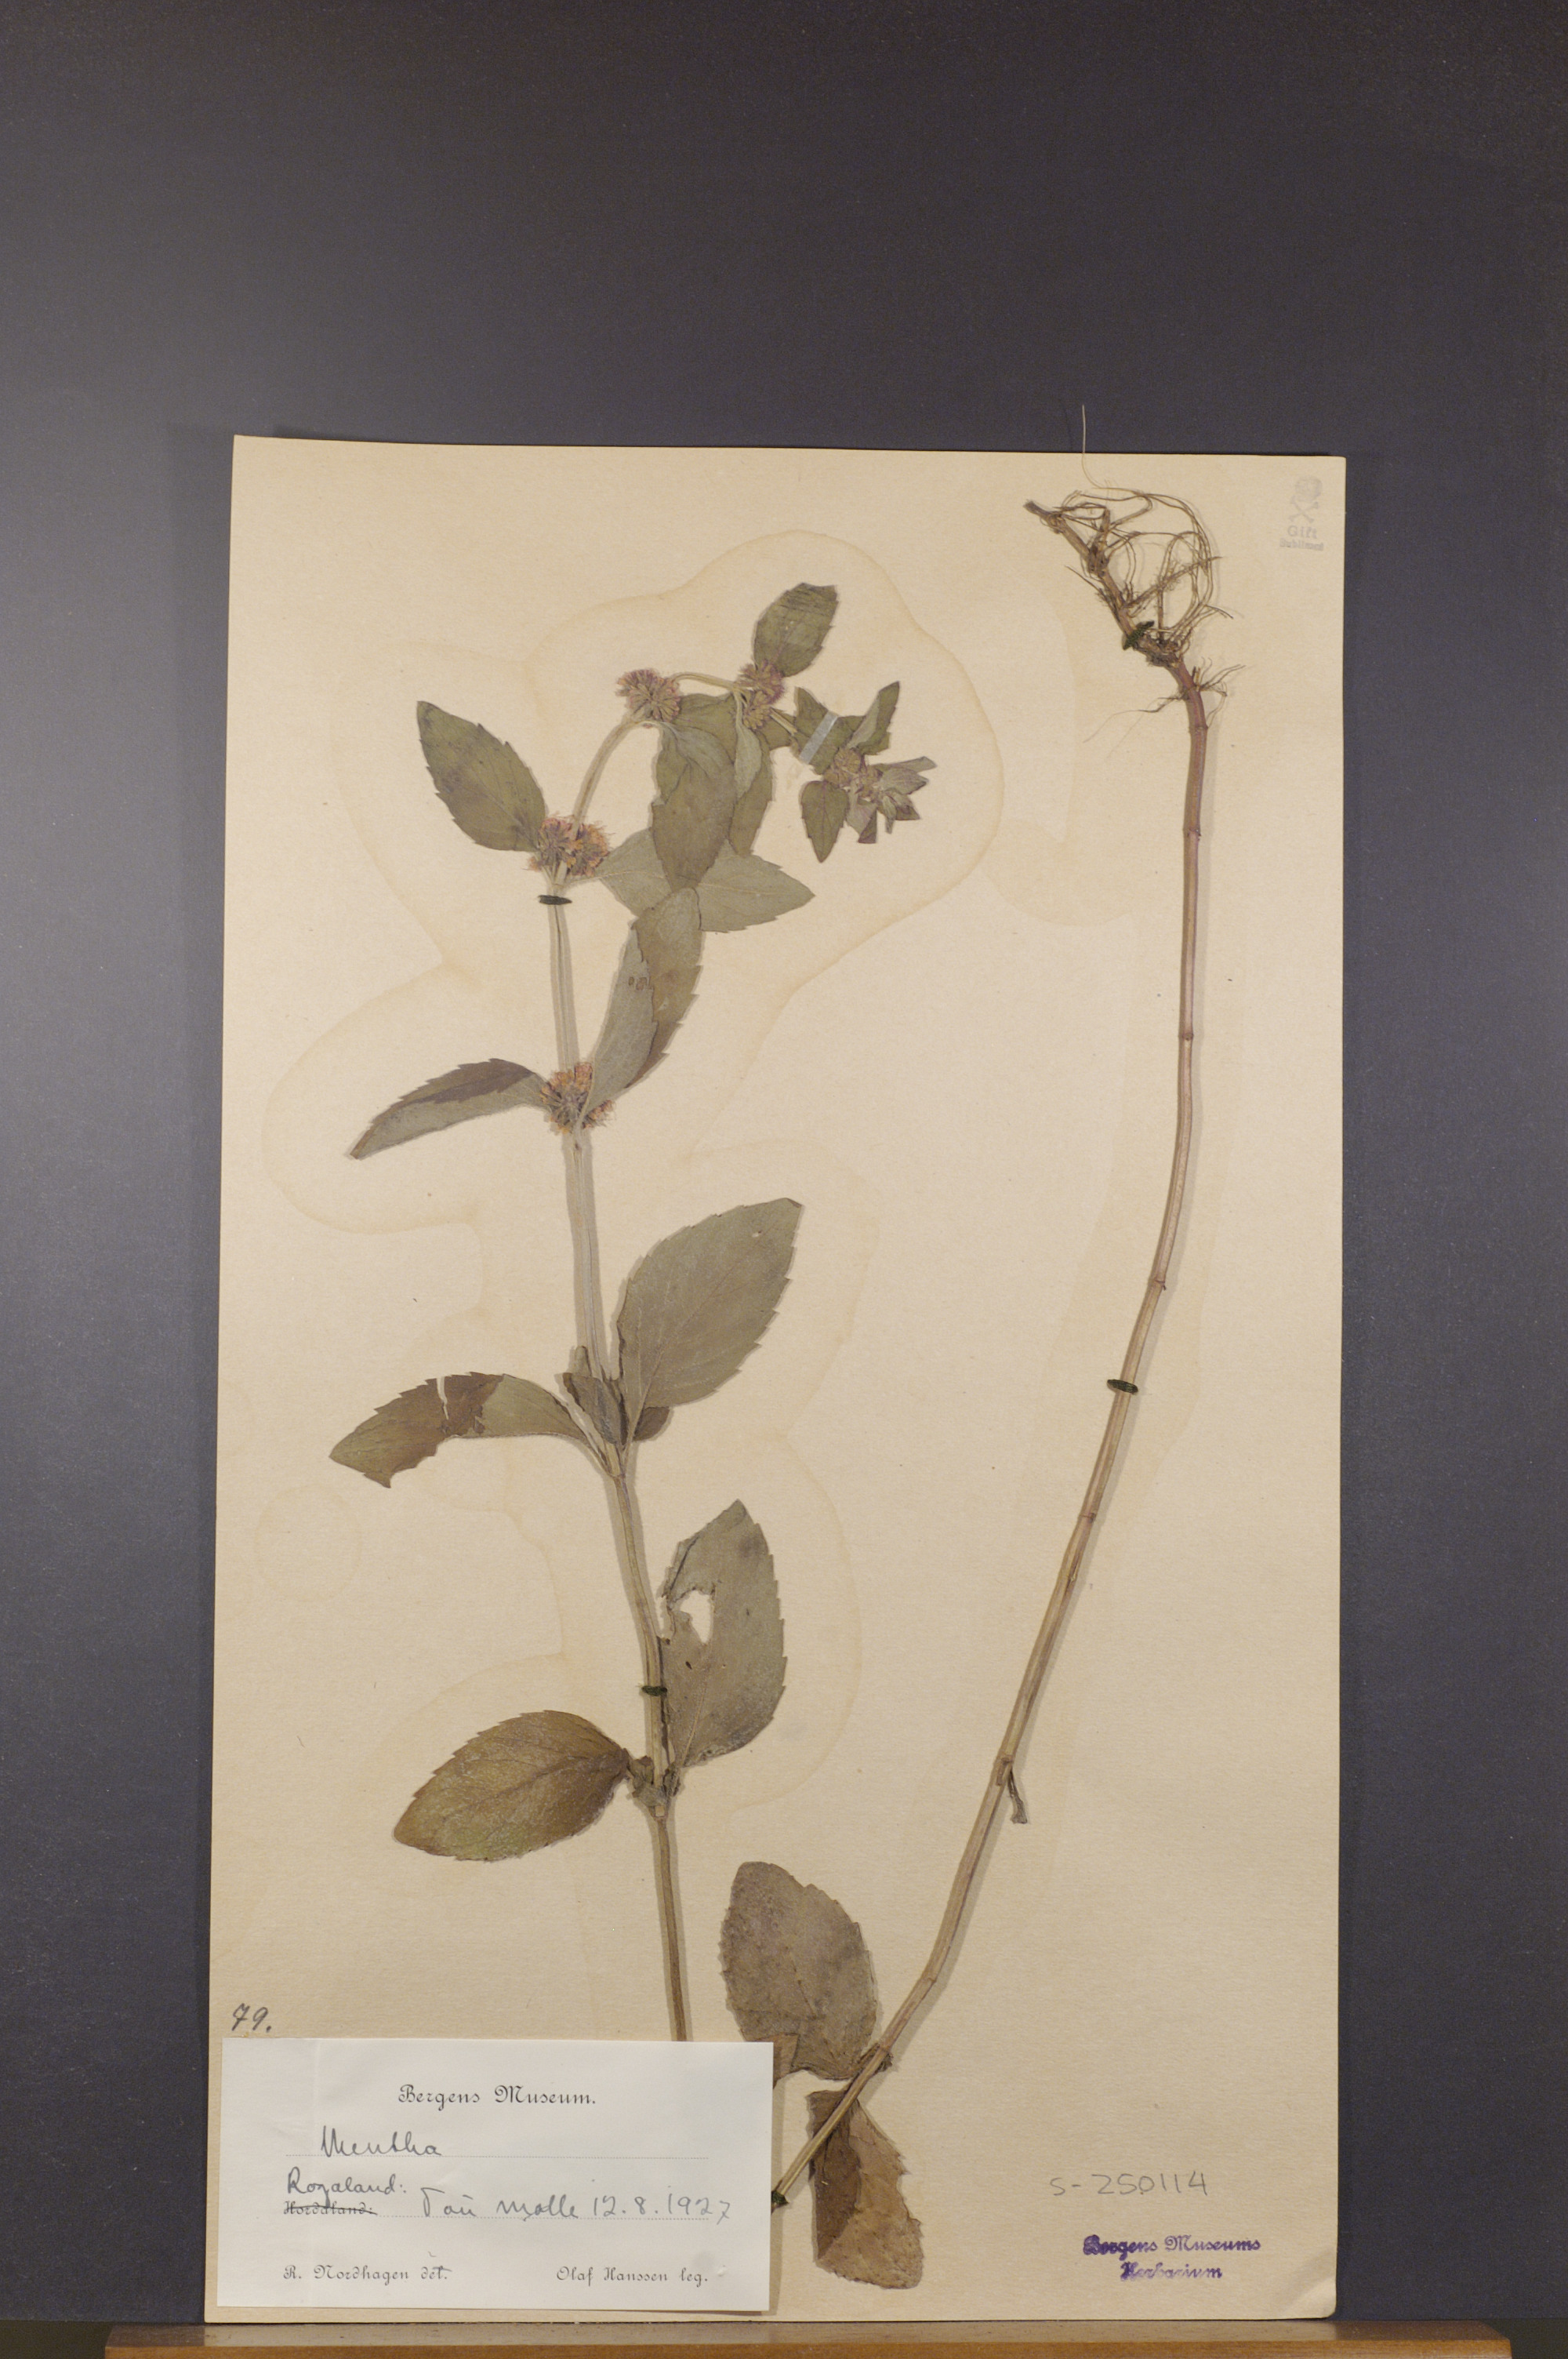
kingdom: Plantae
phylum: Tracheophyta
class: Magnoliopsida
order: Lamiales
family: Lamiaceae
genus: Mentha
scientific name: Mentha
